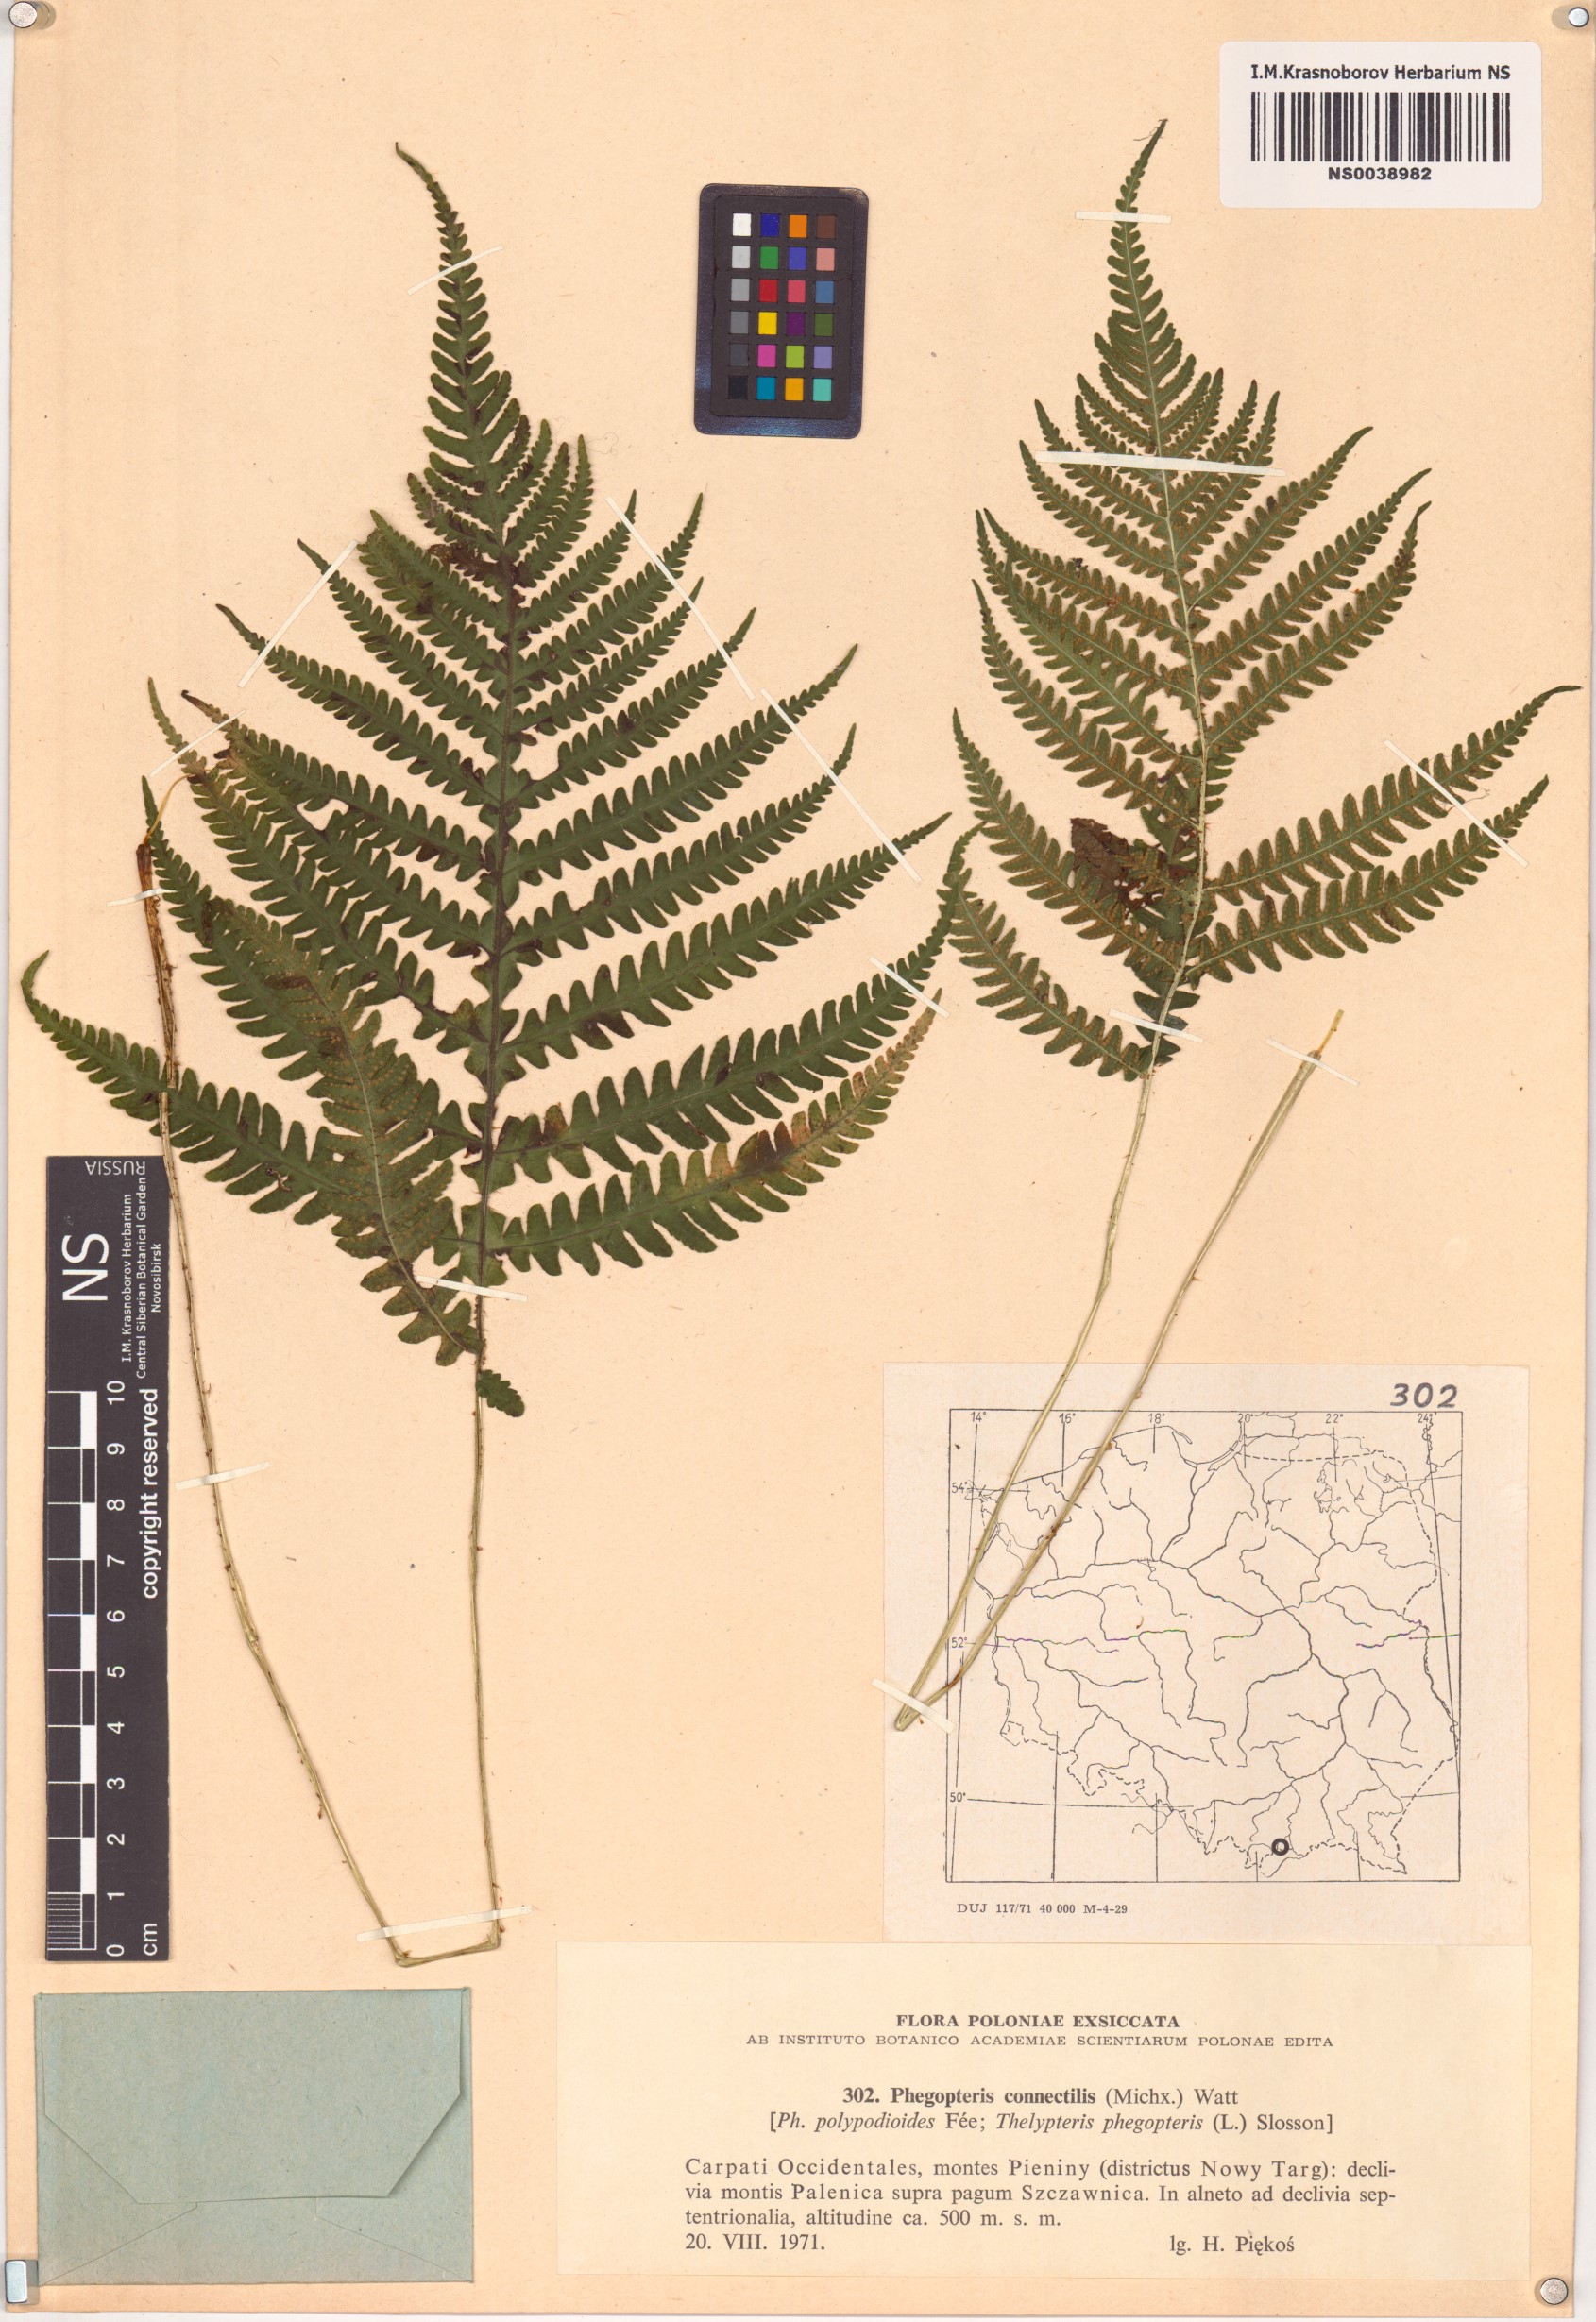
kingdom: Plantae
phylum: Tracheophyta
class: Polypodiopsida
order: Polypodiales
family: Thelypteridaceae
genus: Phegopteris
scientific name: Phegopteris connectilis
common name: Beech fern
